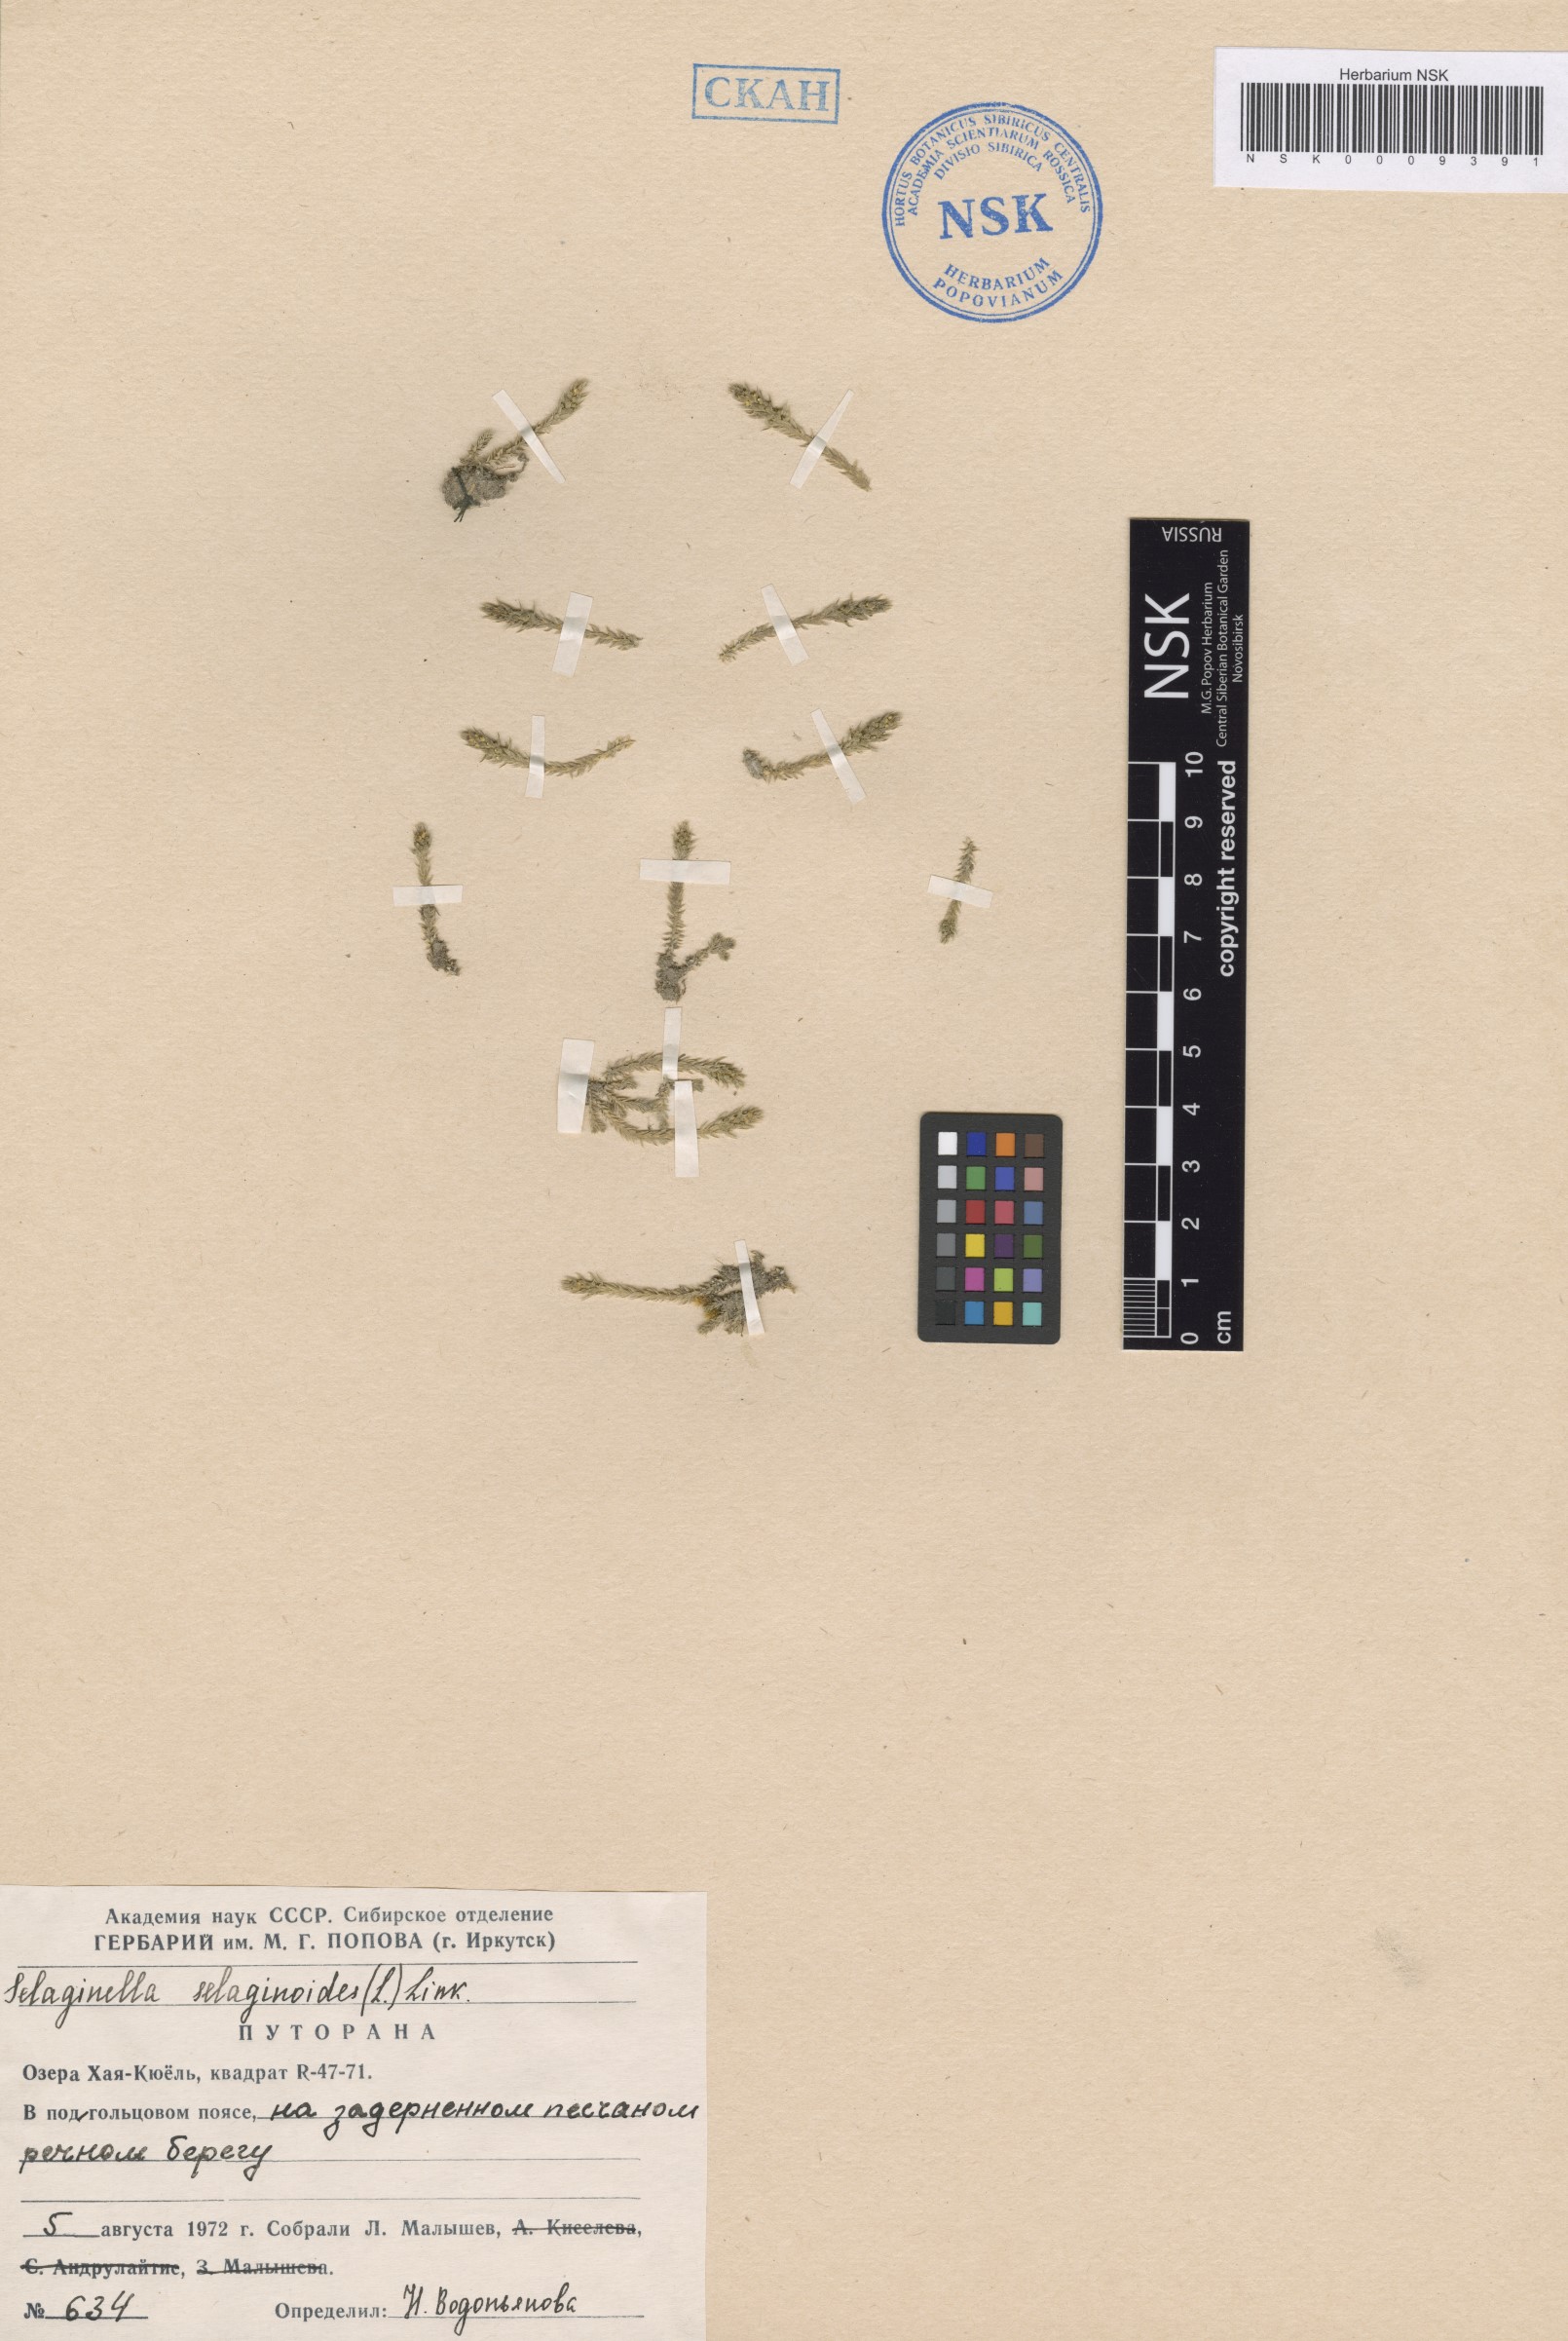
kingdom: Plantae
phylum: Tracheophyta
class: Lycopodiopsida
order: Selaginellales
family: Selaginellaceae
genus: Selaginella
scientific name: Selaginella selaginoides
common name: Prickly mountain-moss
